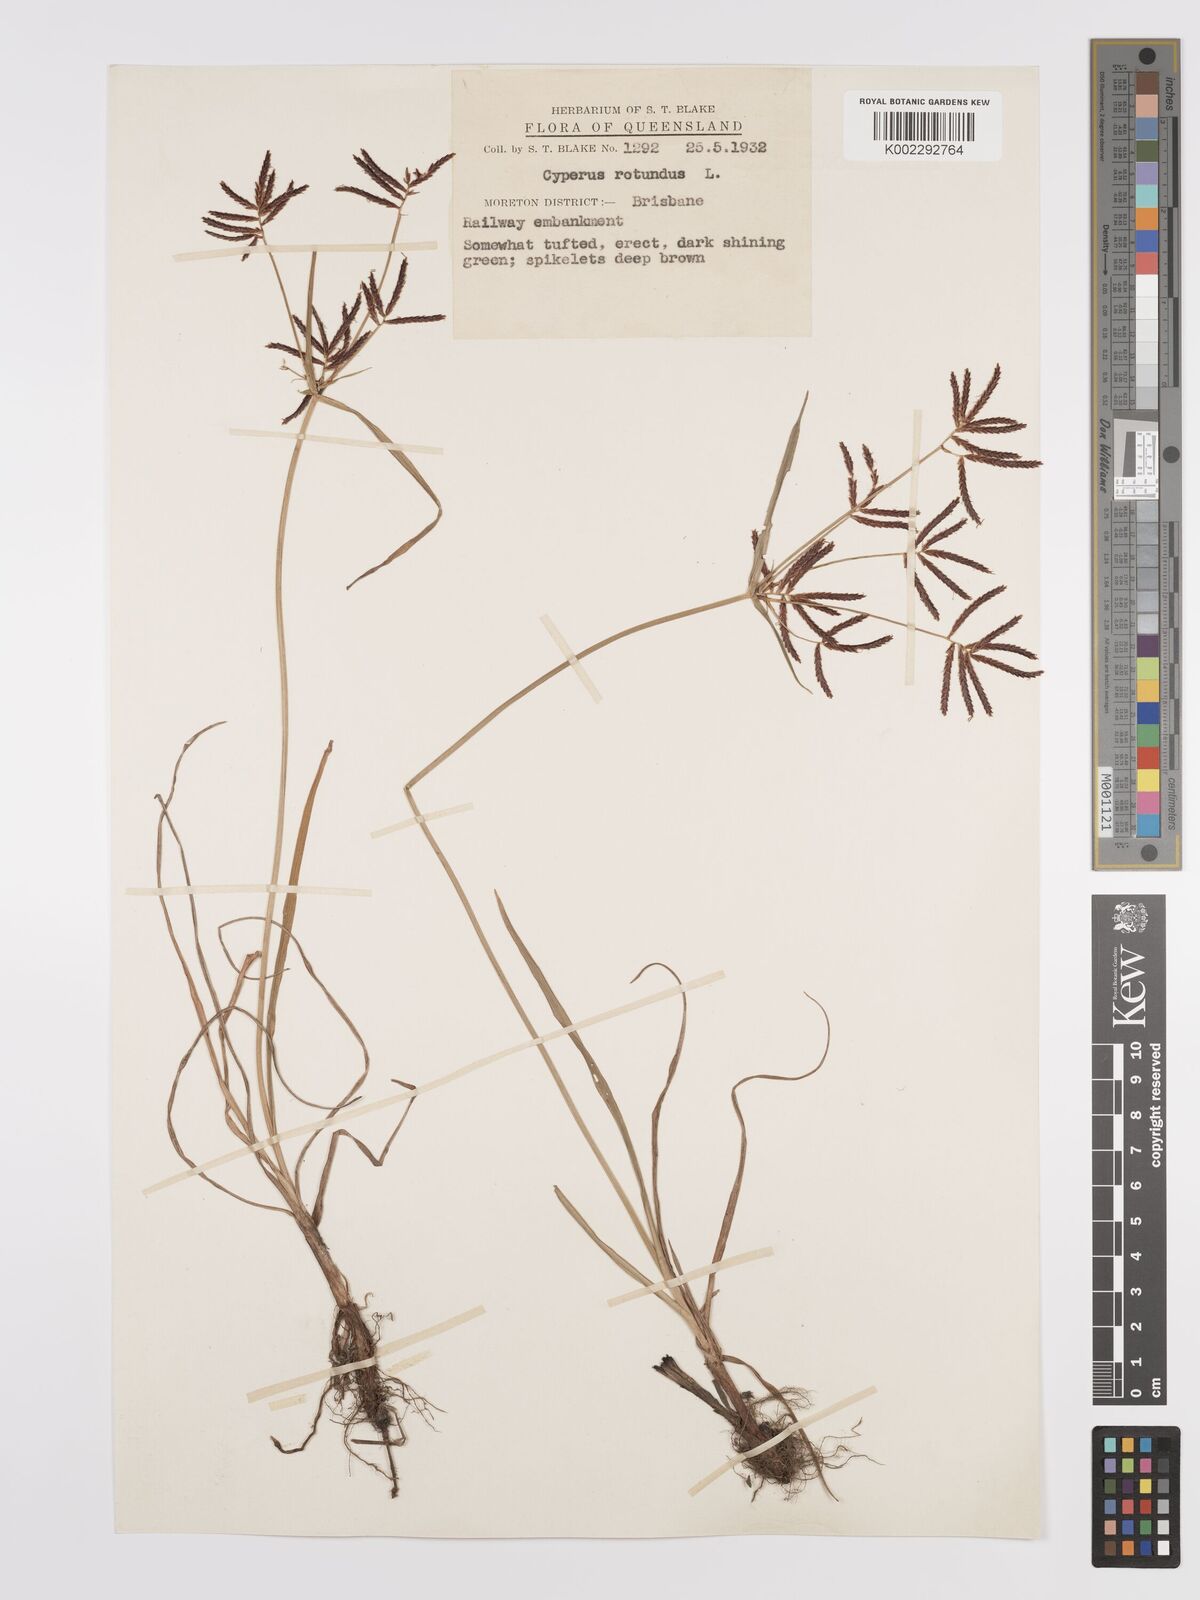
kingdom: Plantae
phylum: Tracheophyta
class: Liliopsida
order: Poales
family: Cyperaceae
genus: Cyperus
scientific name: Cyperus rotundus
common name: Nutgrass
